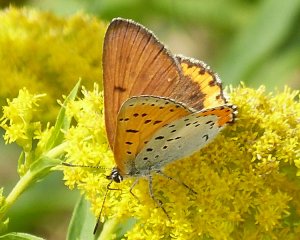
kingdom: Animalia
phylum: Arthropoda
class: Insecta
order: Lepidoptera
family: Sesiidae
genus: Sesia
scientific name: Sesia Lycaena hyllus
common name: Bronze Copper
